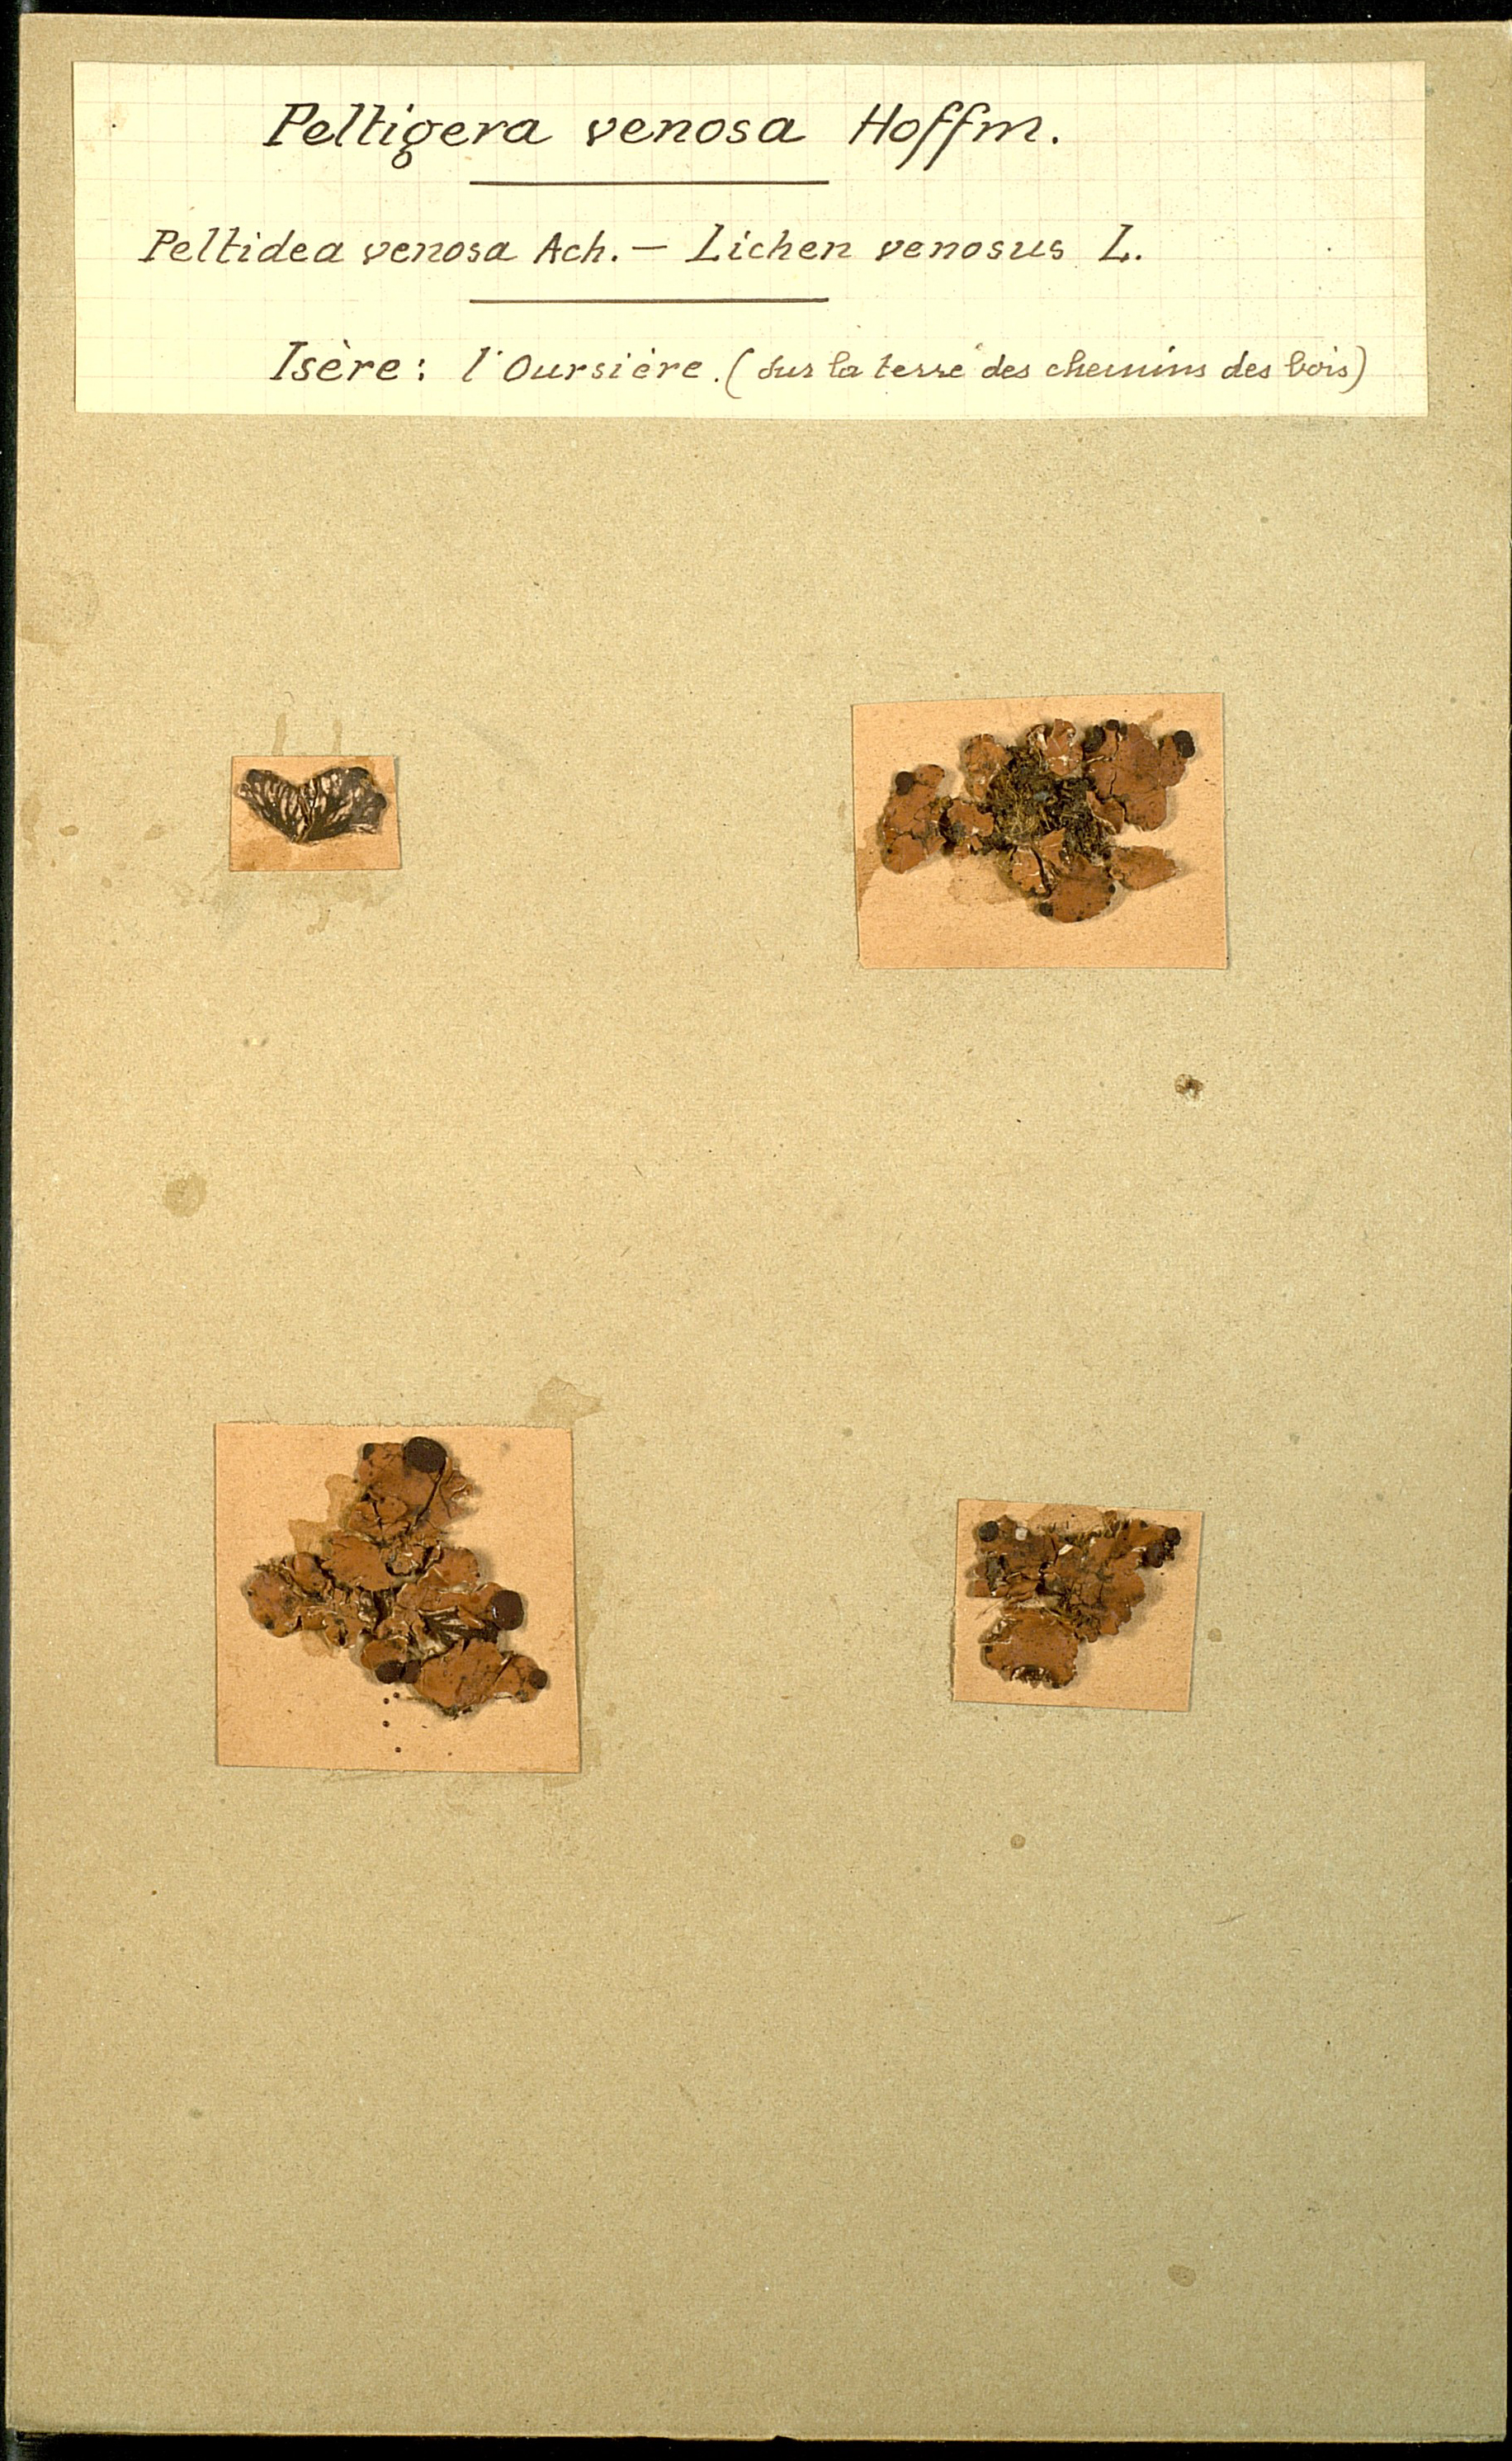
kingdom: Fungi
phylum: Ascomycota
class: Lecanoromycetes
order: Peltigerales
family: Peltigeraceae
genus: Peltigera
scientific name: Peltigera venosa
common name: Pixie gowns lichen
